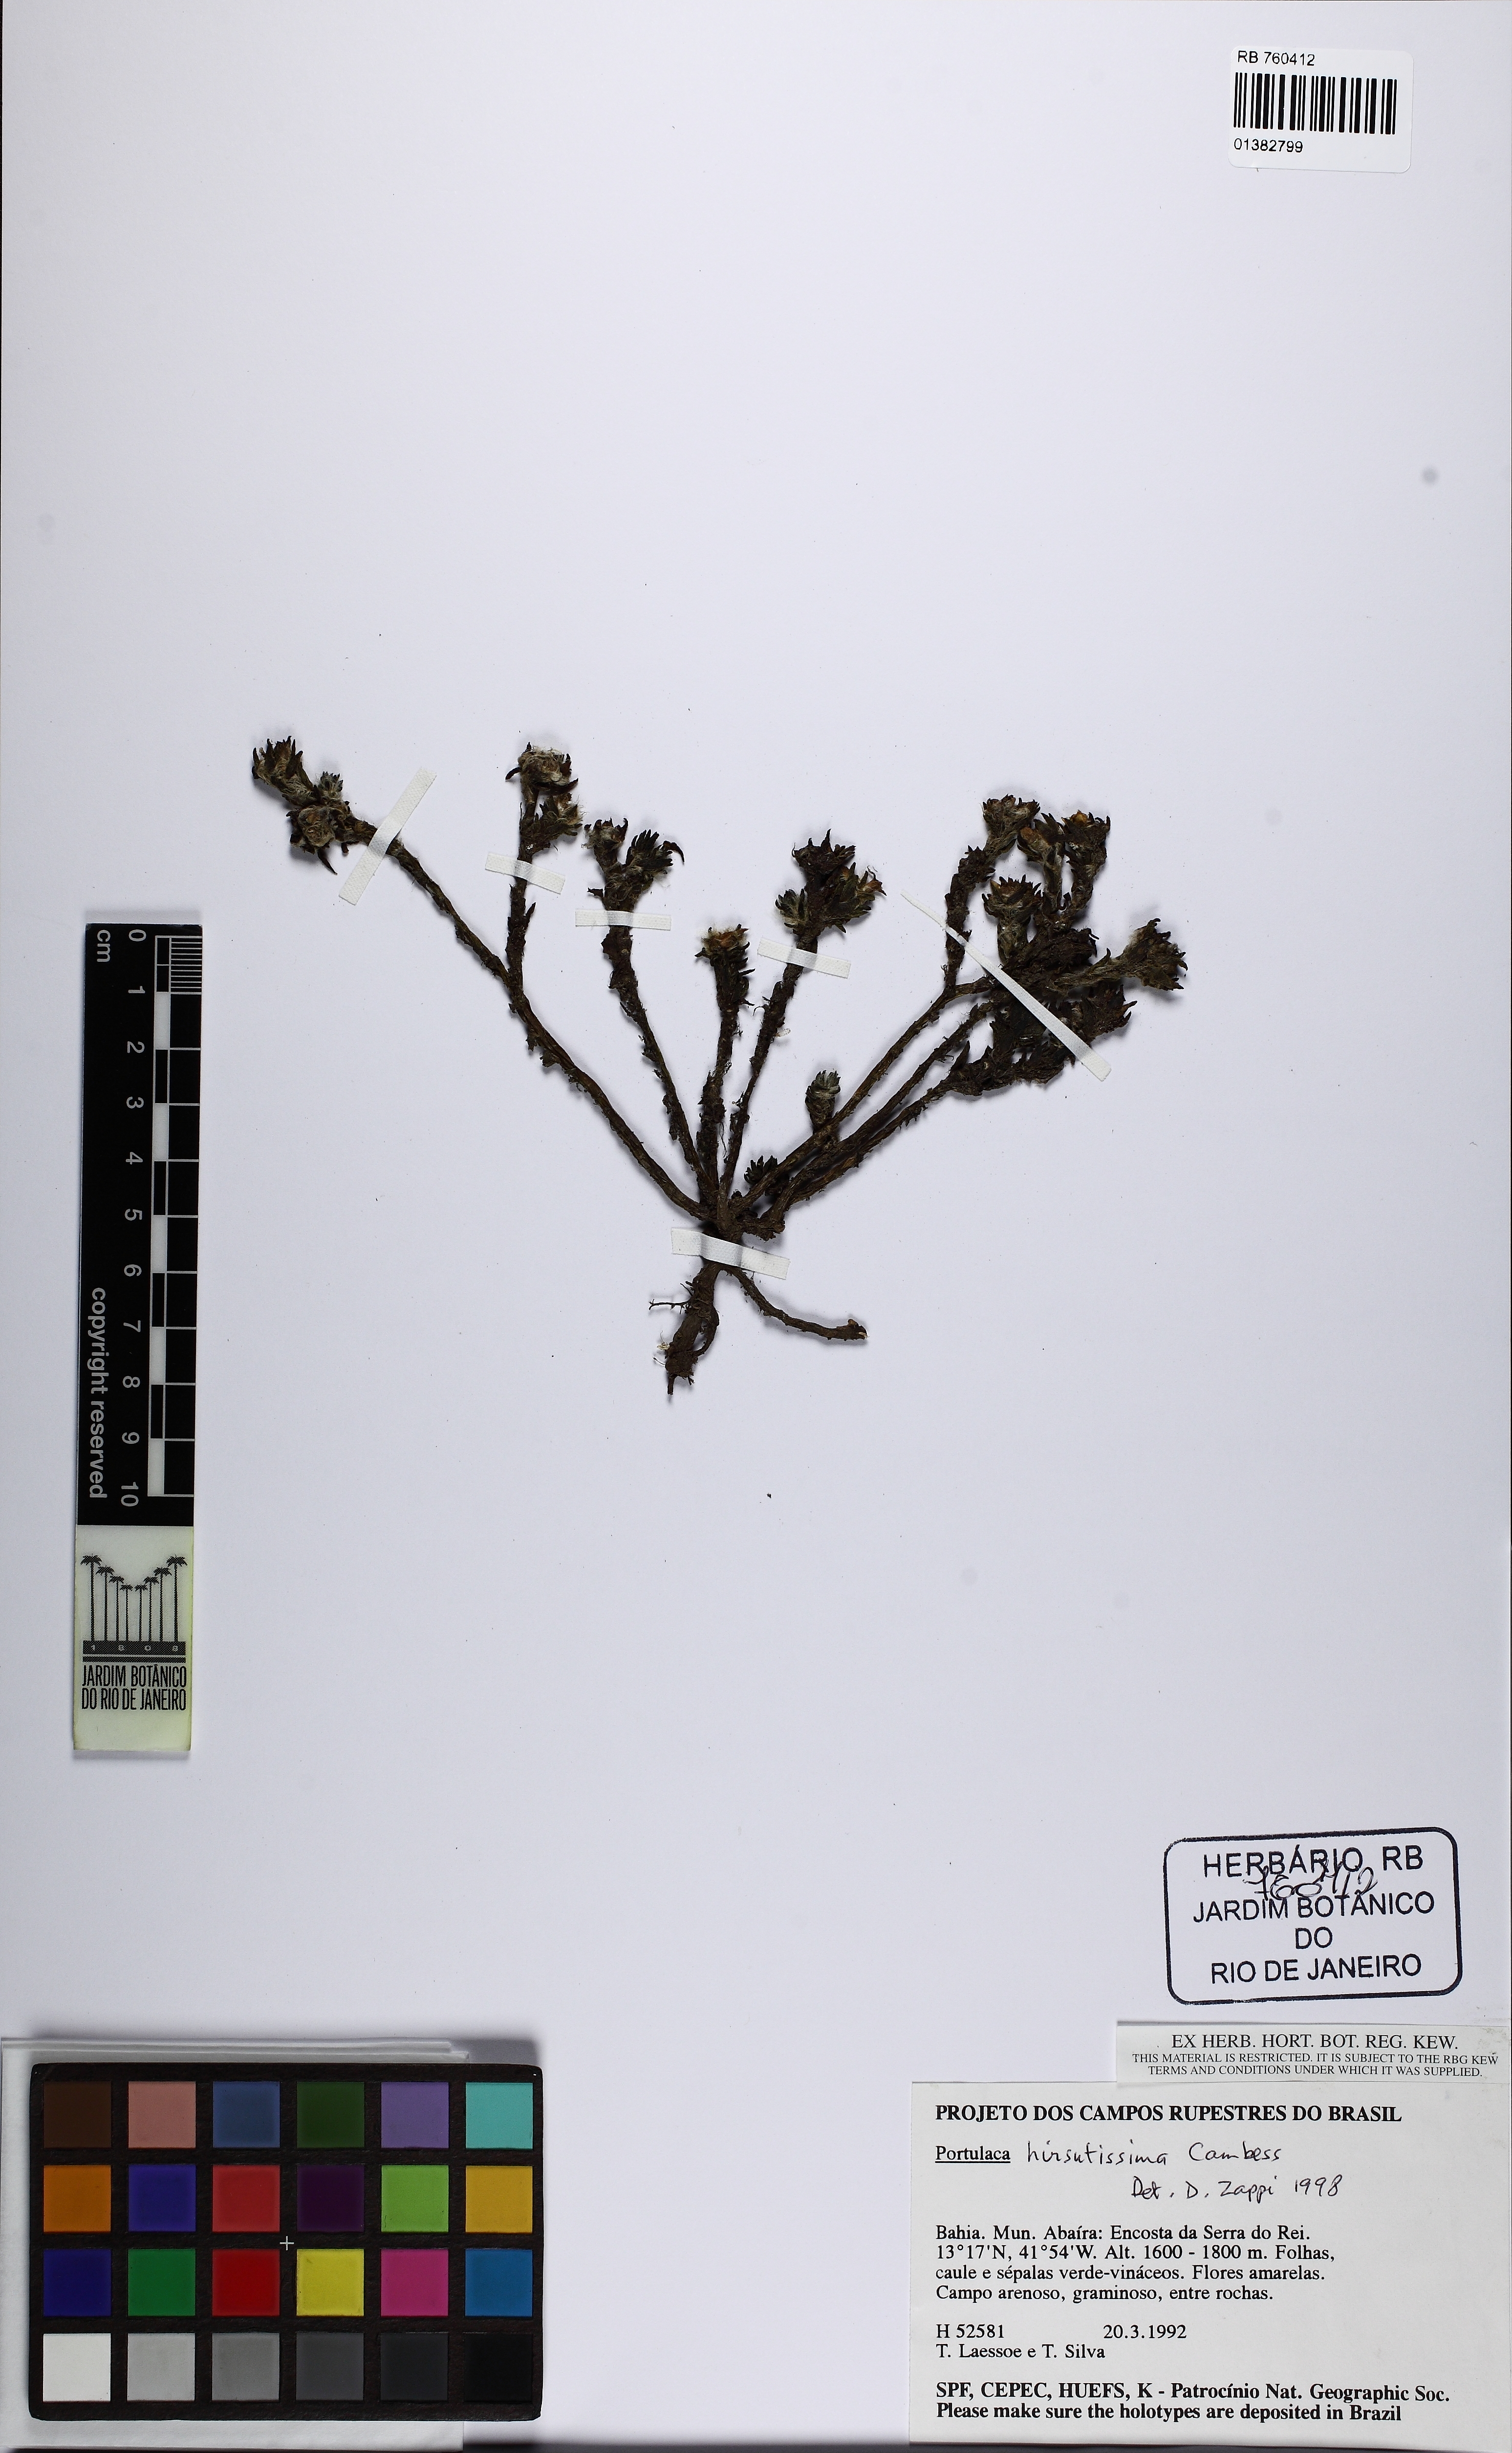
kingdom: Plantae
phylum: Tracheophyta
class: Magnoliopsida
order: Caryophyllales
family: Portulacaceae
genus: Portulaca
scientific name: Portulaca hirsutissima
